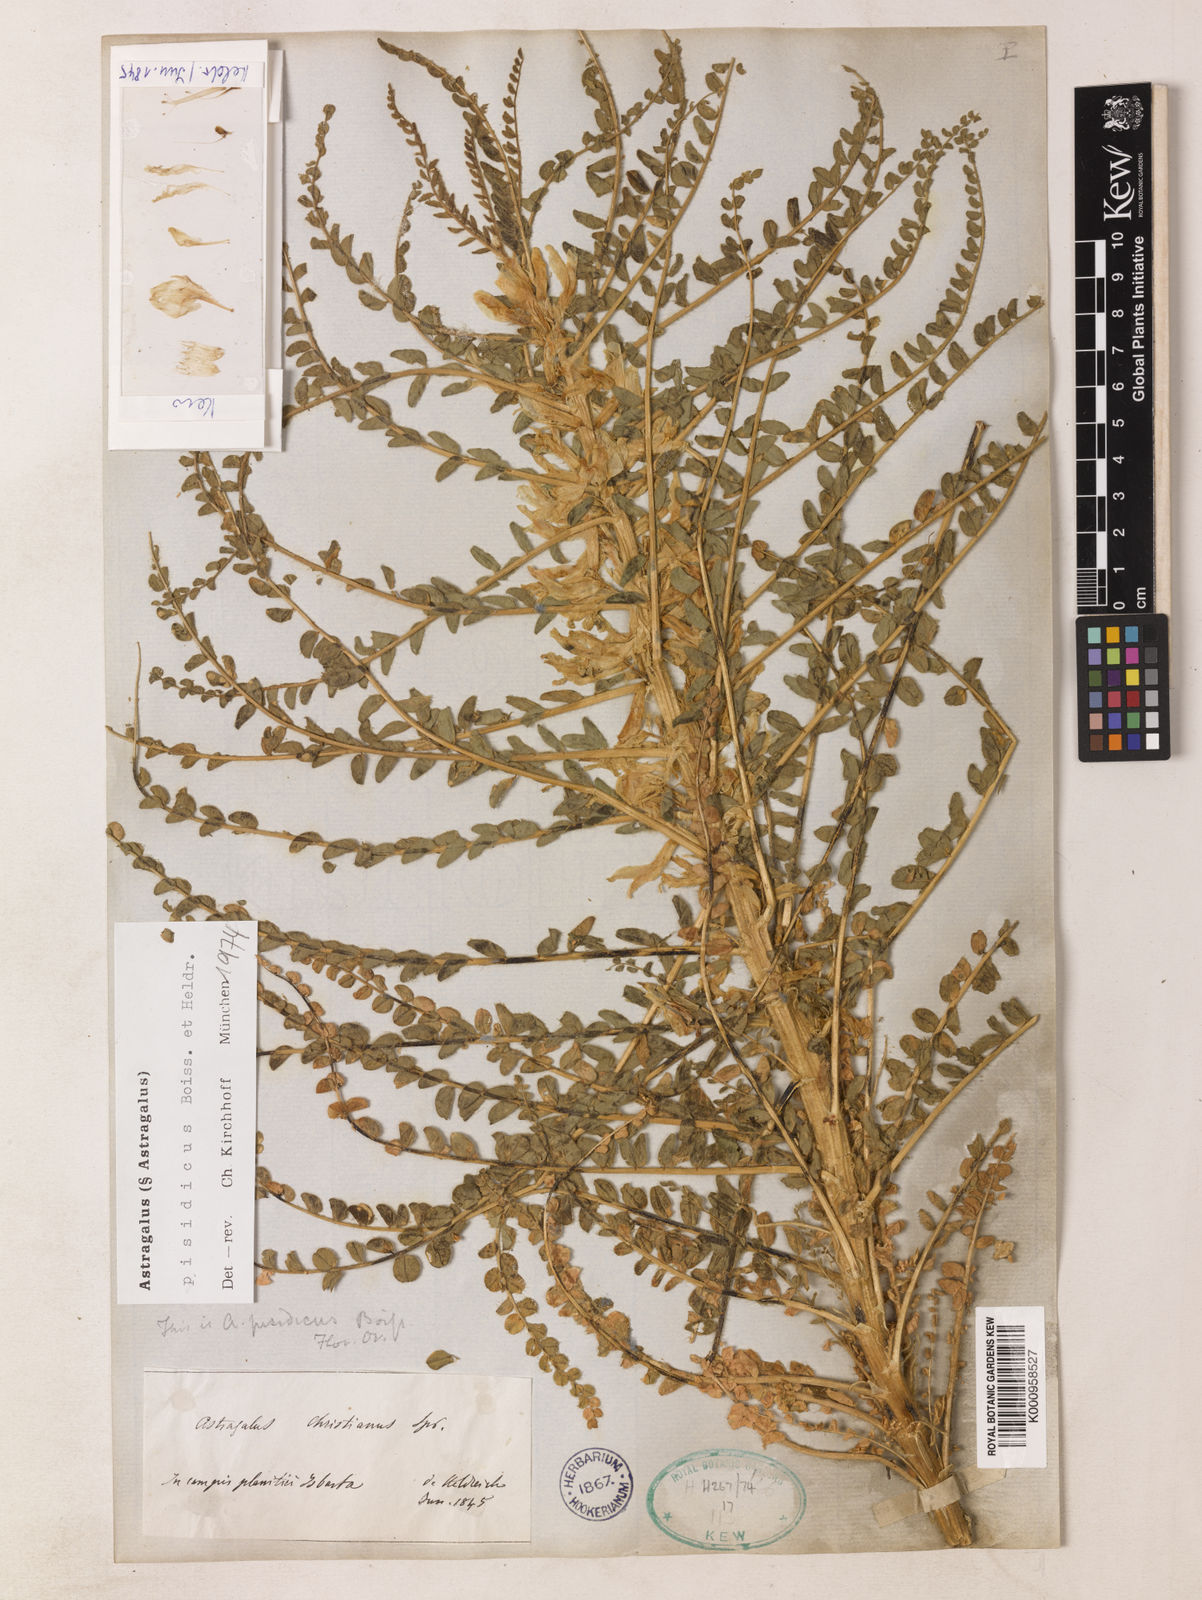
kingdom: Plantae
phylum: Tracheophyta
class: Magnoliopsida
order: Fabales
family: Fabaceae
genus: Astragalus
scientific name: Astragalus
